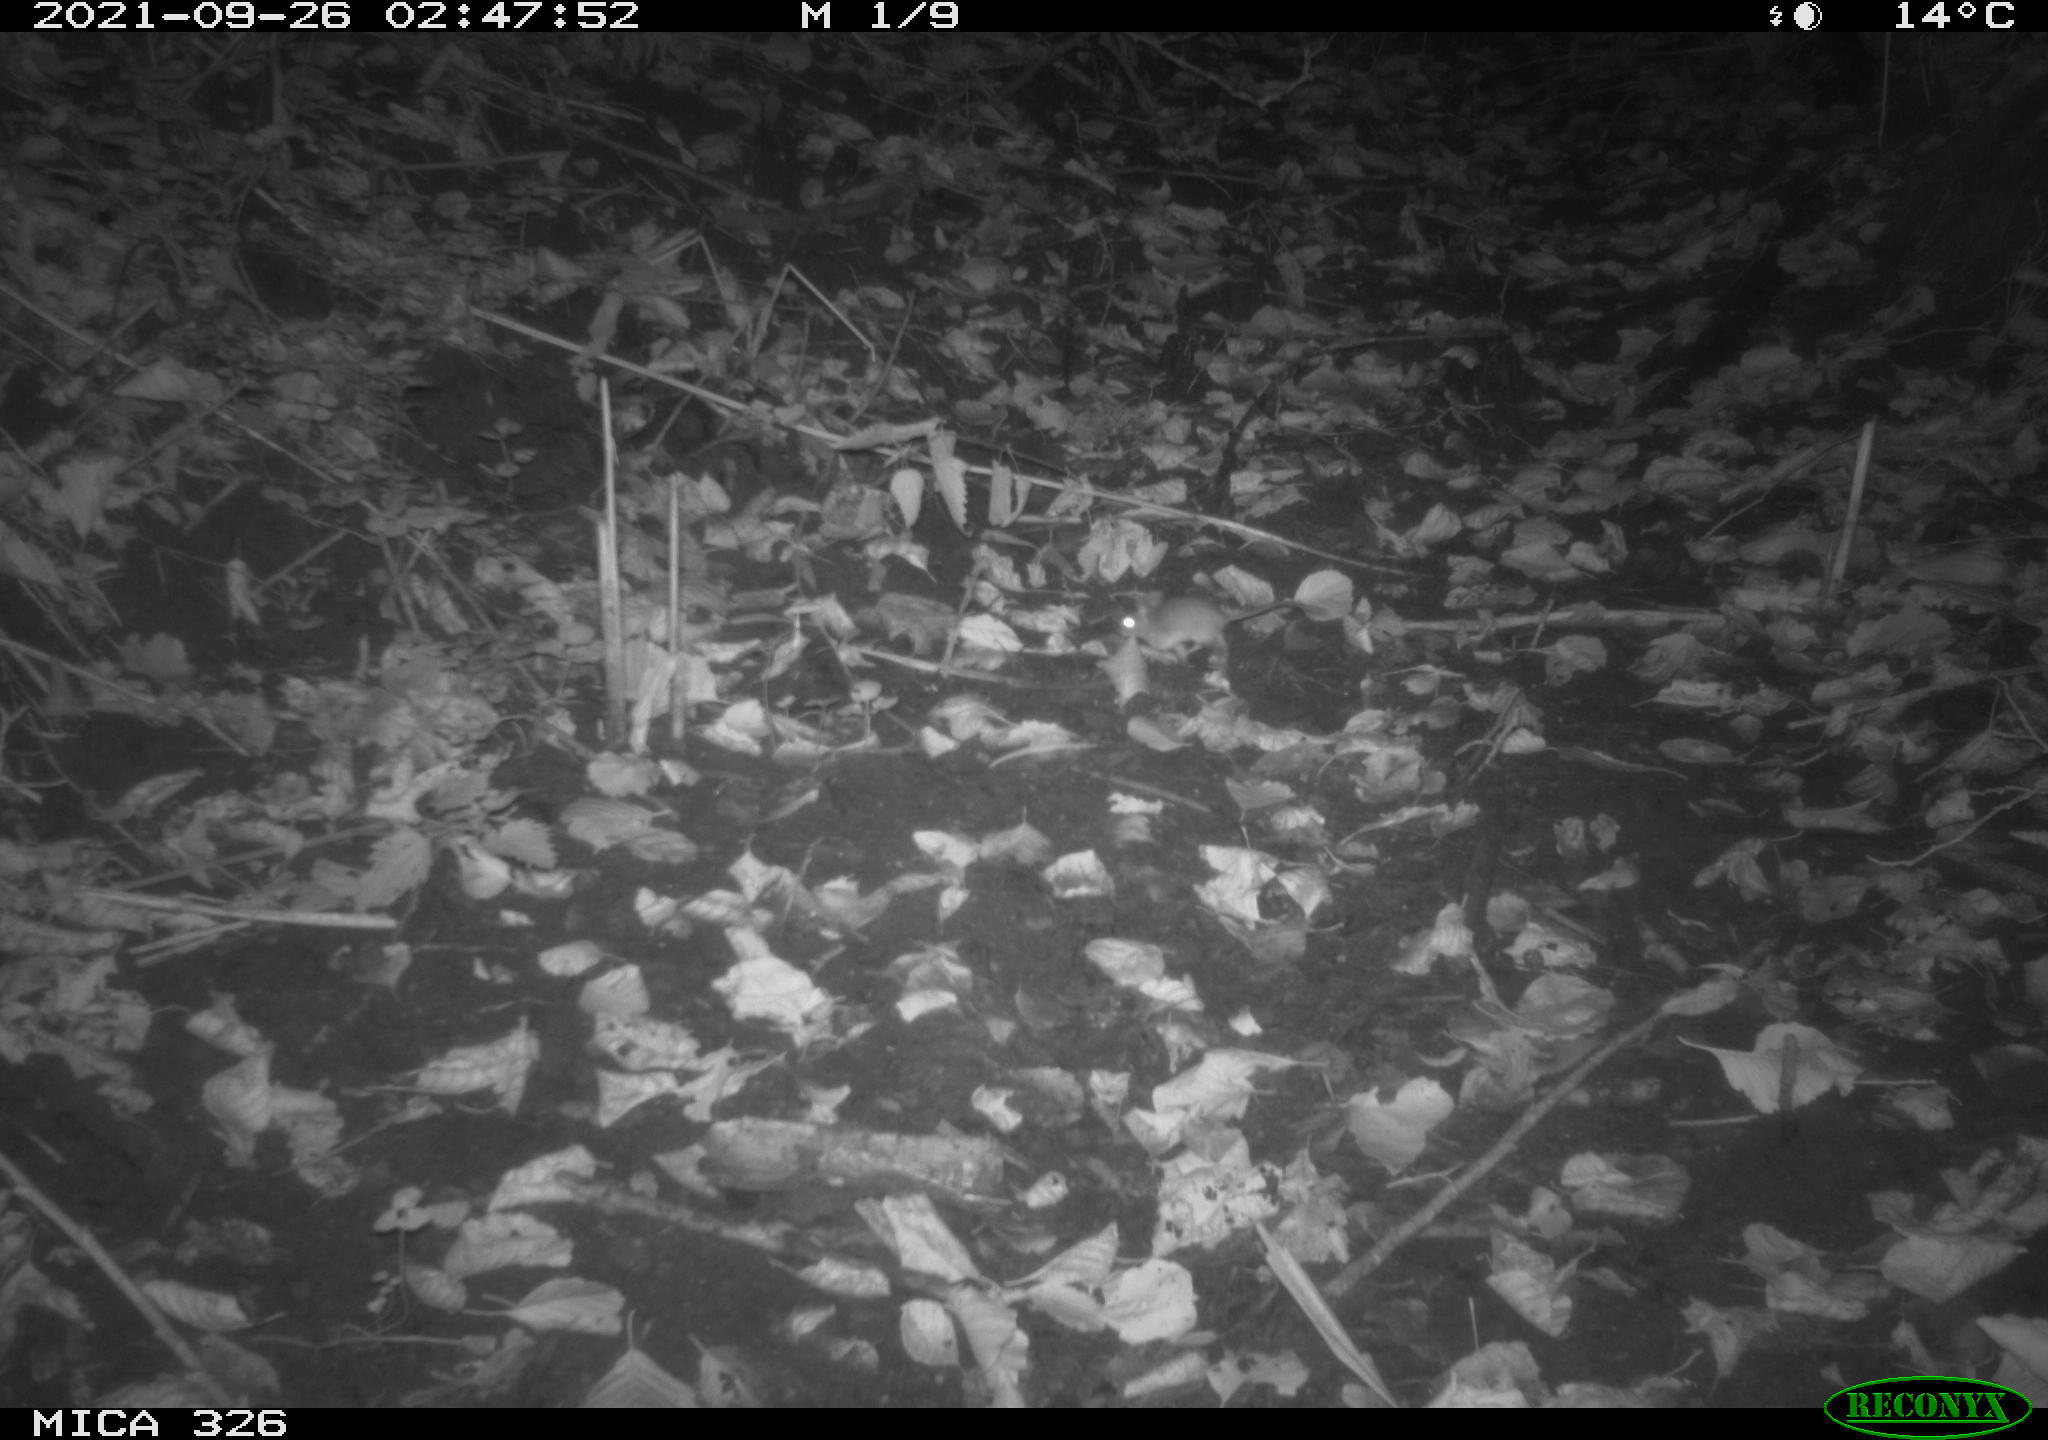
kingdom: Animalia
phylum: Chordata
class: Mammalia
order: Rodentia
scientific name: Rodentia
